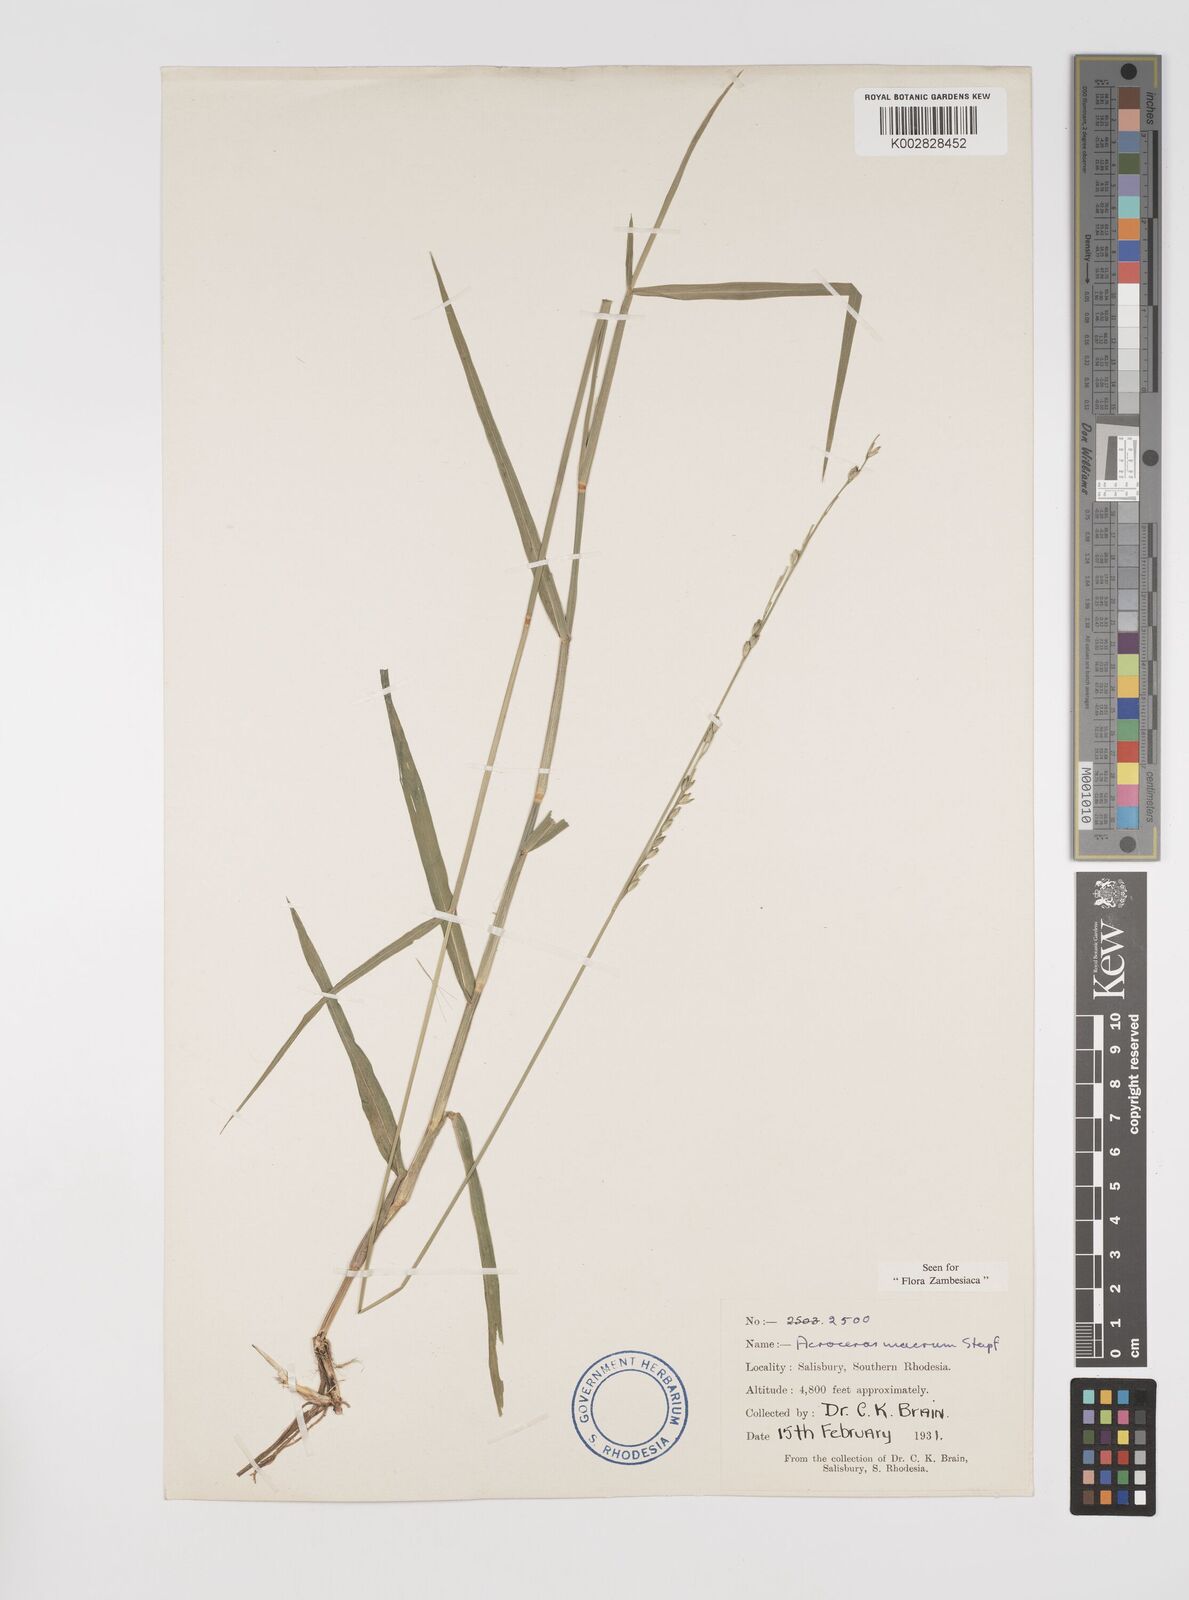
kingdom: Plantae
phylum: Tracheophyta
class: Liliopsida
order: Poales
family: Poaceae
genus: Acroceras
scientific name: Acroceras macrum
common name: Nyl grass
